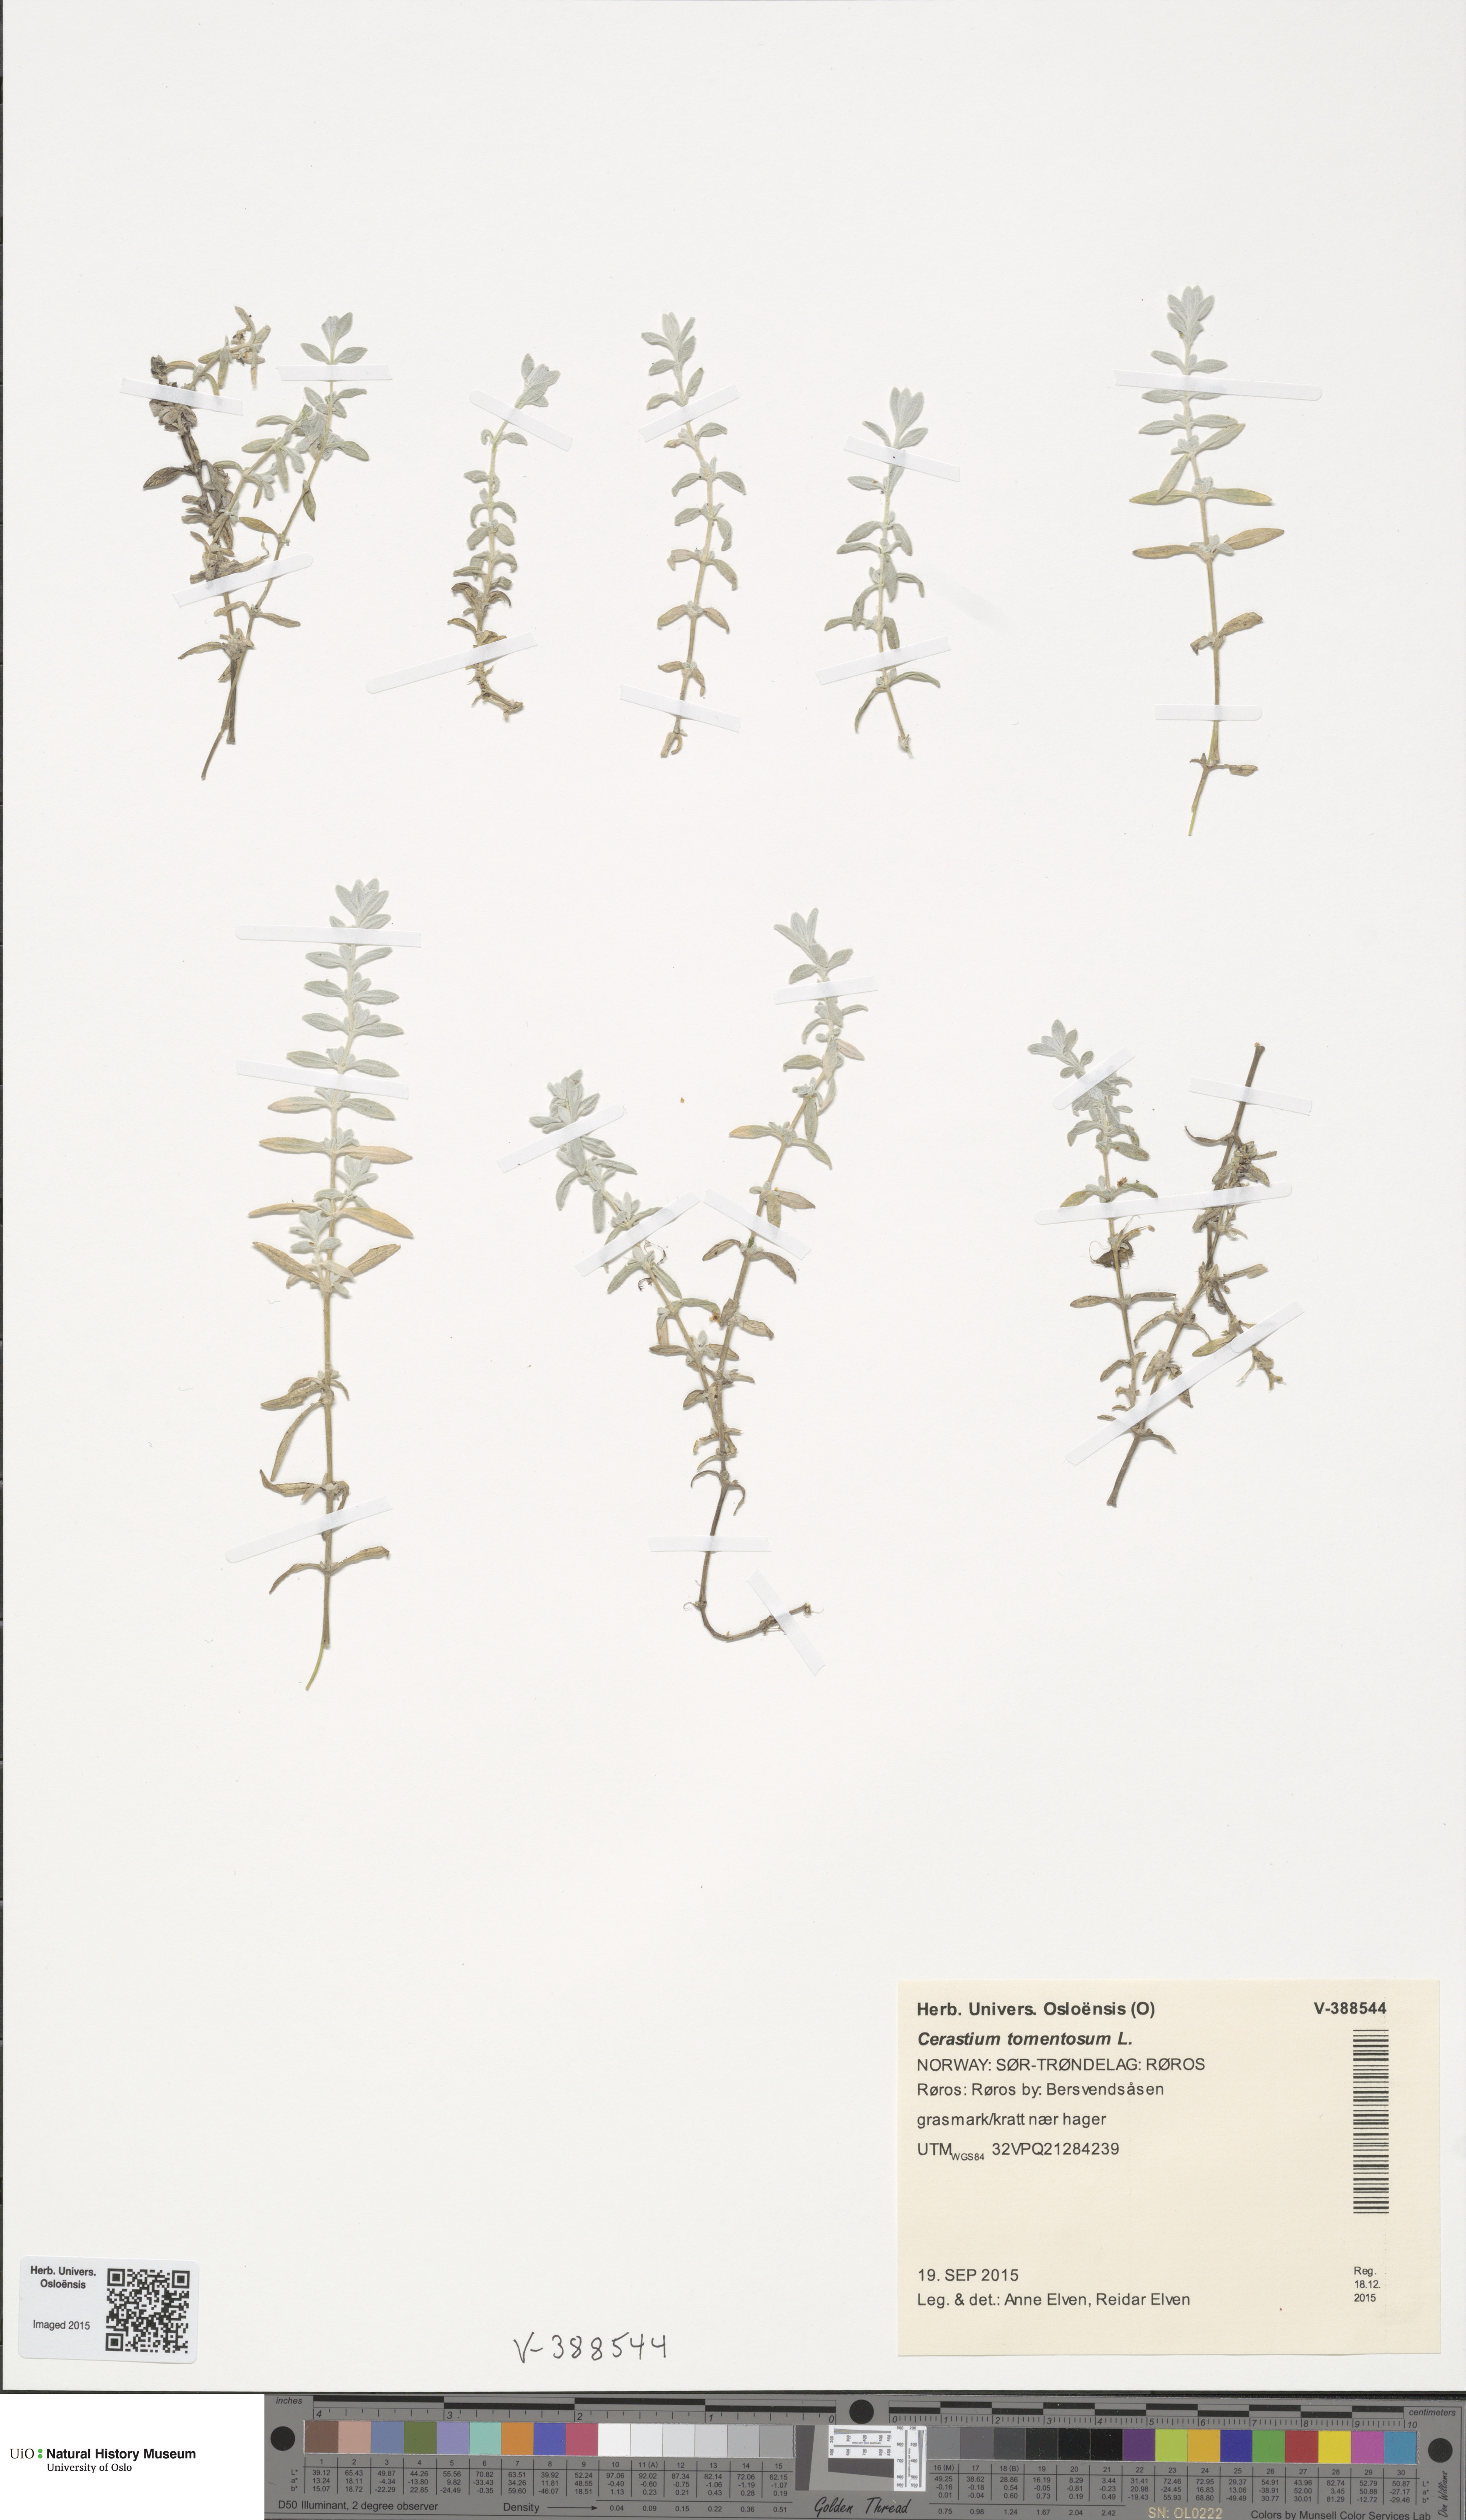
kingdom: Plantae
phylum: Tracheophyta
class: Magnoliopsida
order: Caryophyllales
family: Caryophyllaceae
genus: Cerastium
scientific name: Cerastium tomentosum
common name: Snow-in-summer
